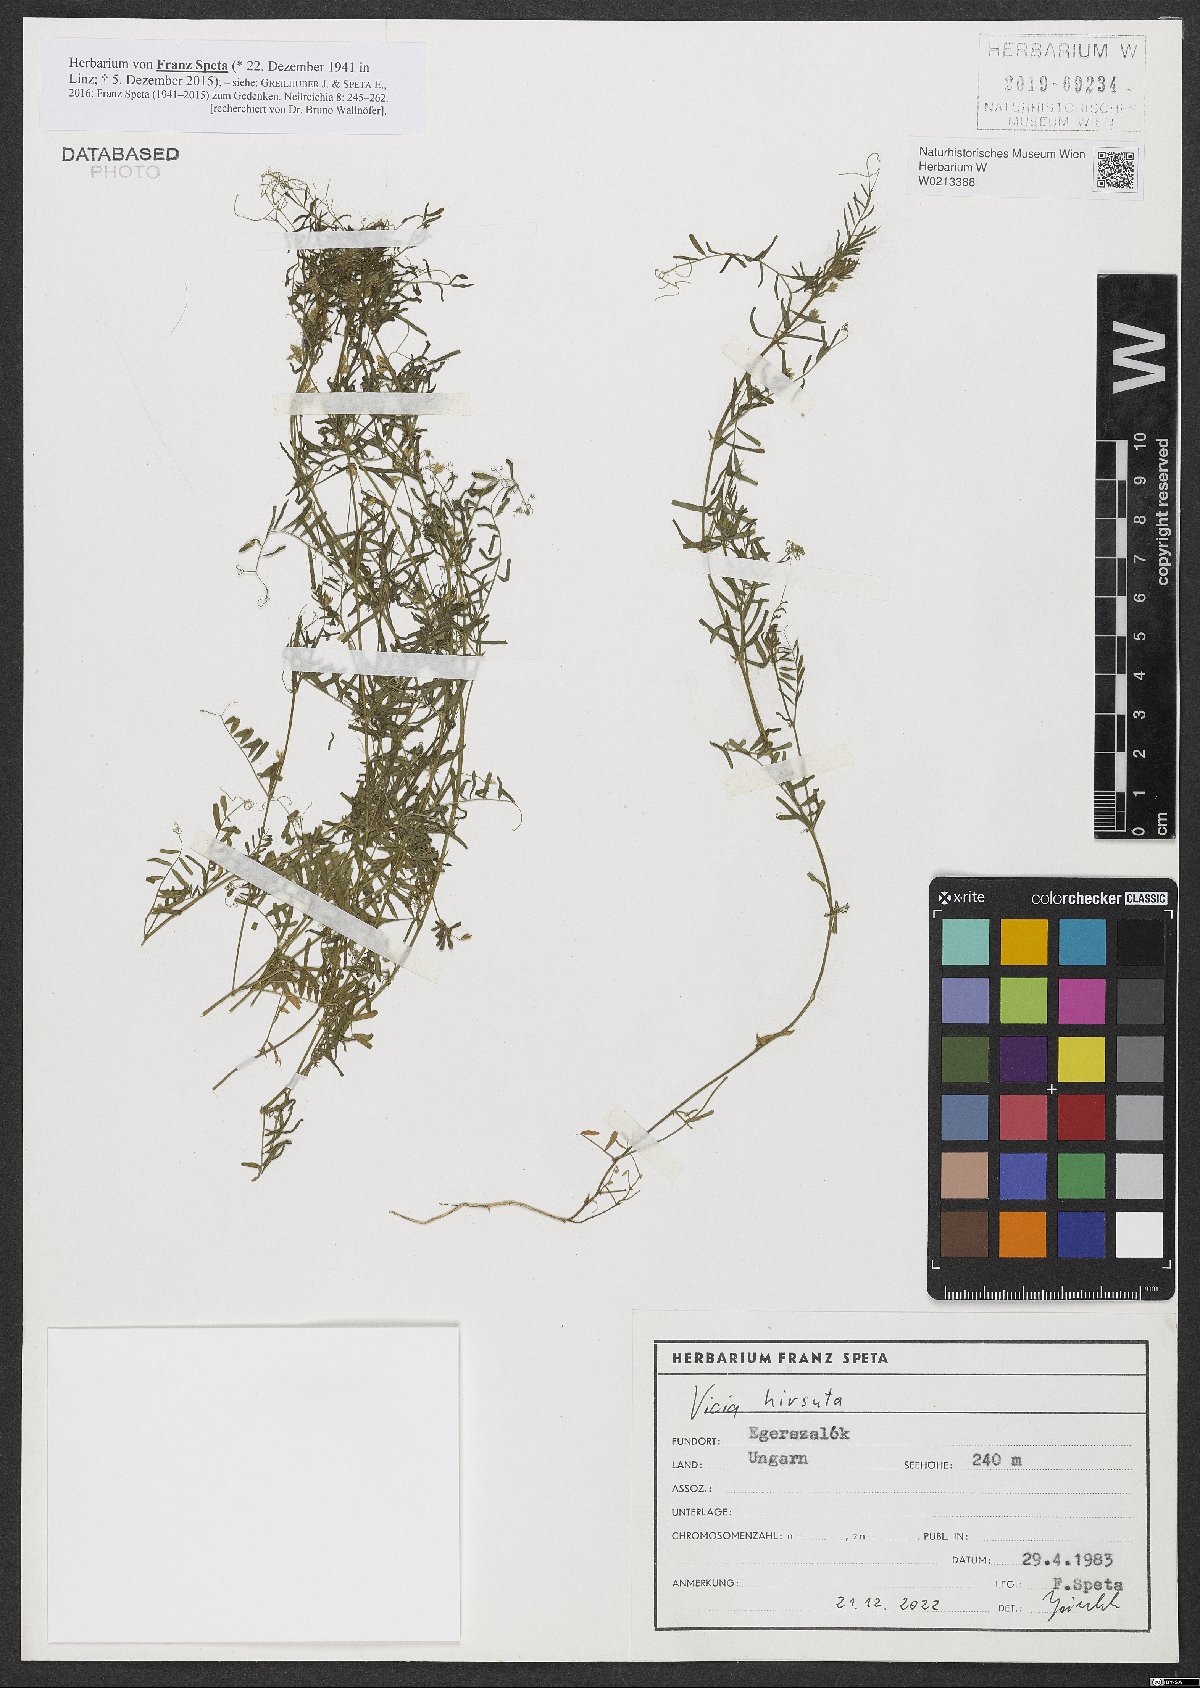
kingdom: Plantae
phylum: Tracheophyta
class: Magnoliopsida
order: Fabales
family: Fabaceae
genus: Vicia
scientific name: Vicia hirsuta
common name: Tiny vetch
